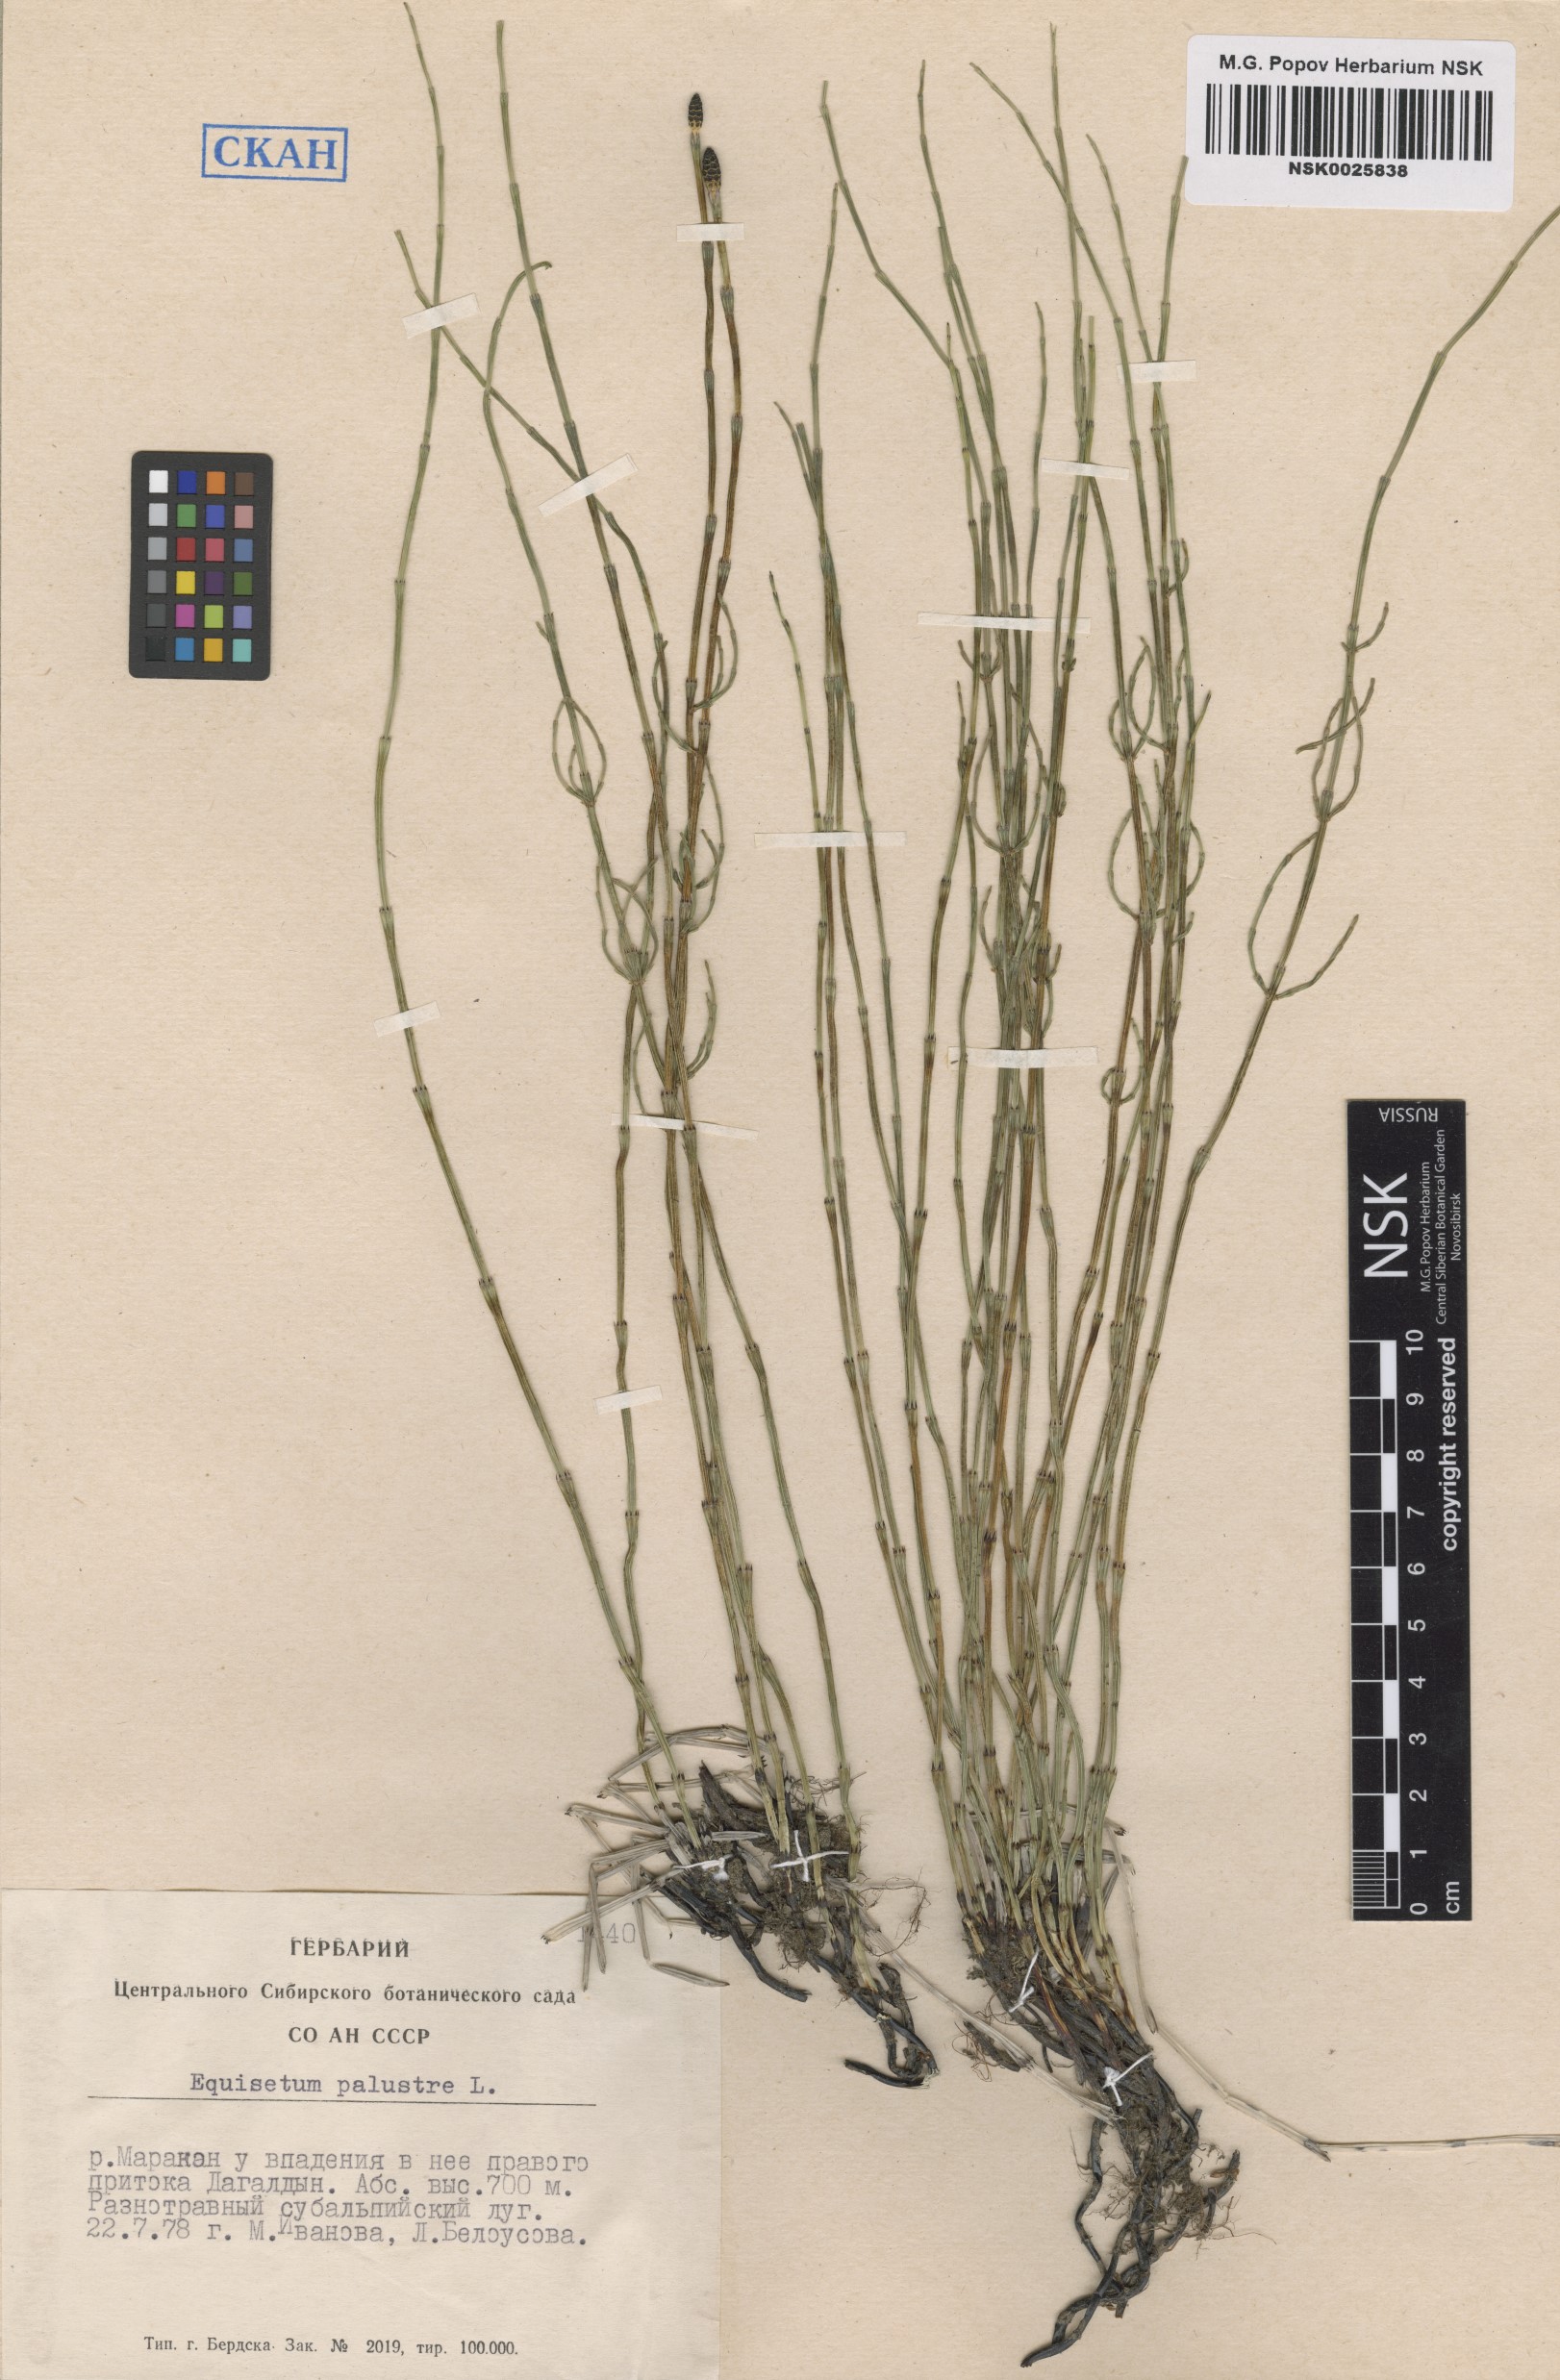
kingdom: Plantae
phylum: Tracheophyta
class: Polypodiopsida
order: Equisetales
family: Equisetaceae
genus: Equisetum
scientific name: Equisetum palustre
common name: Marsh horsetail
